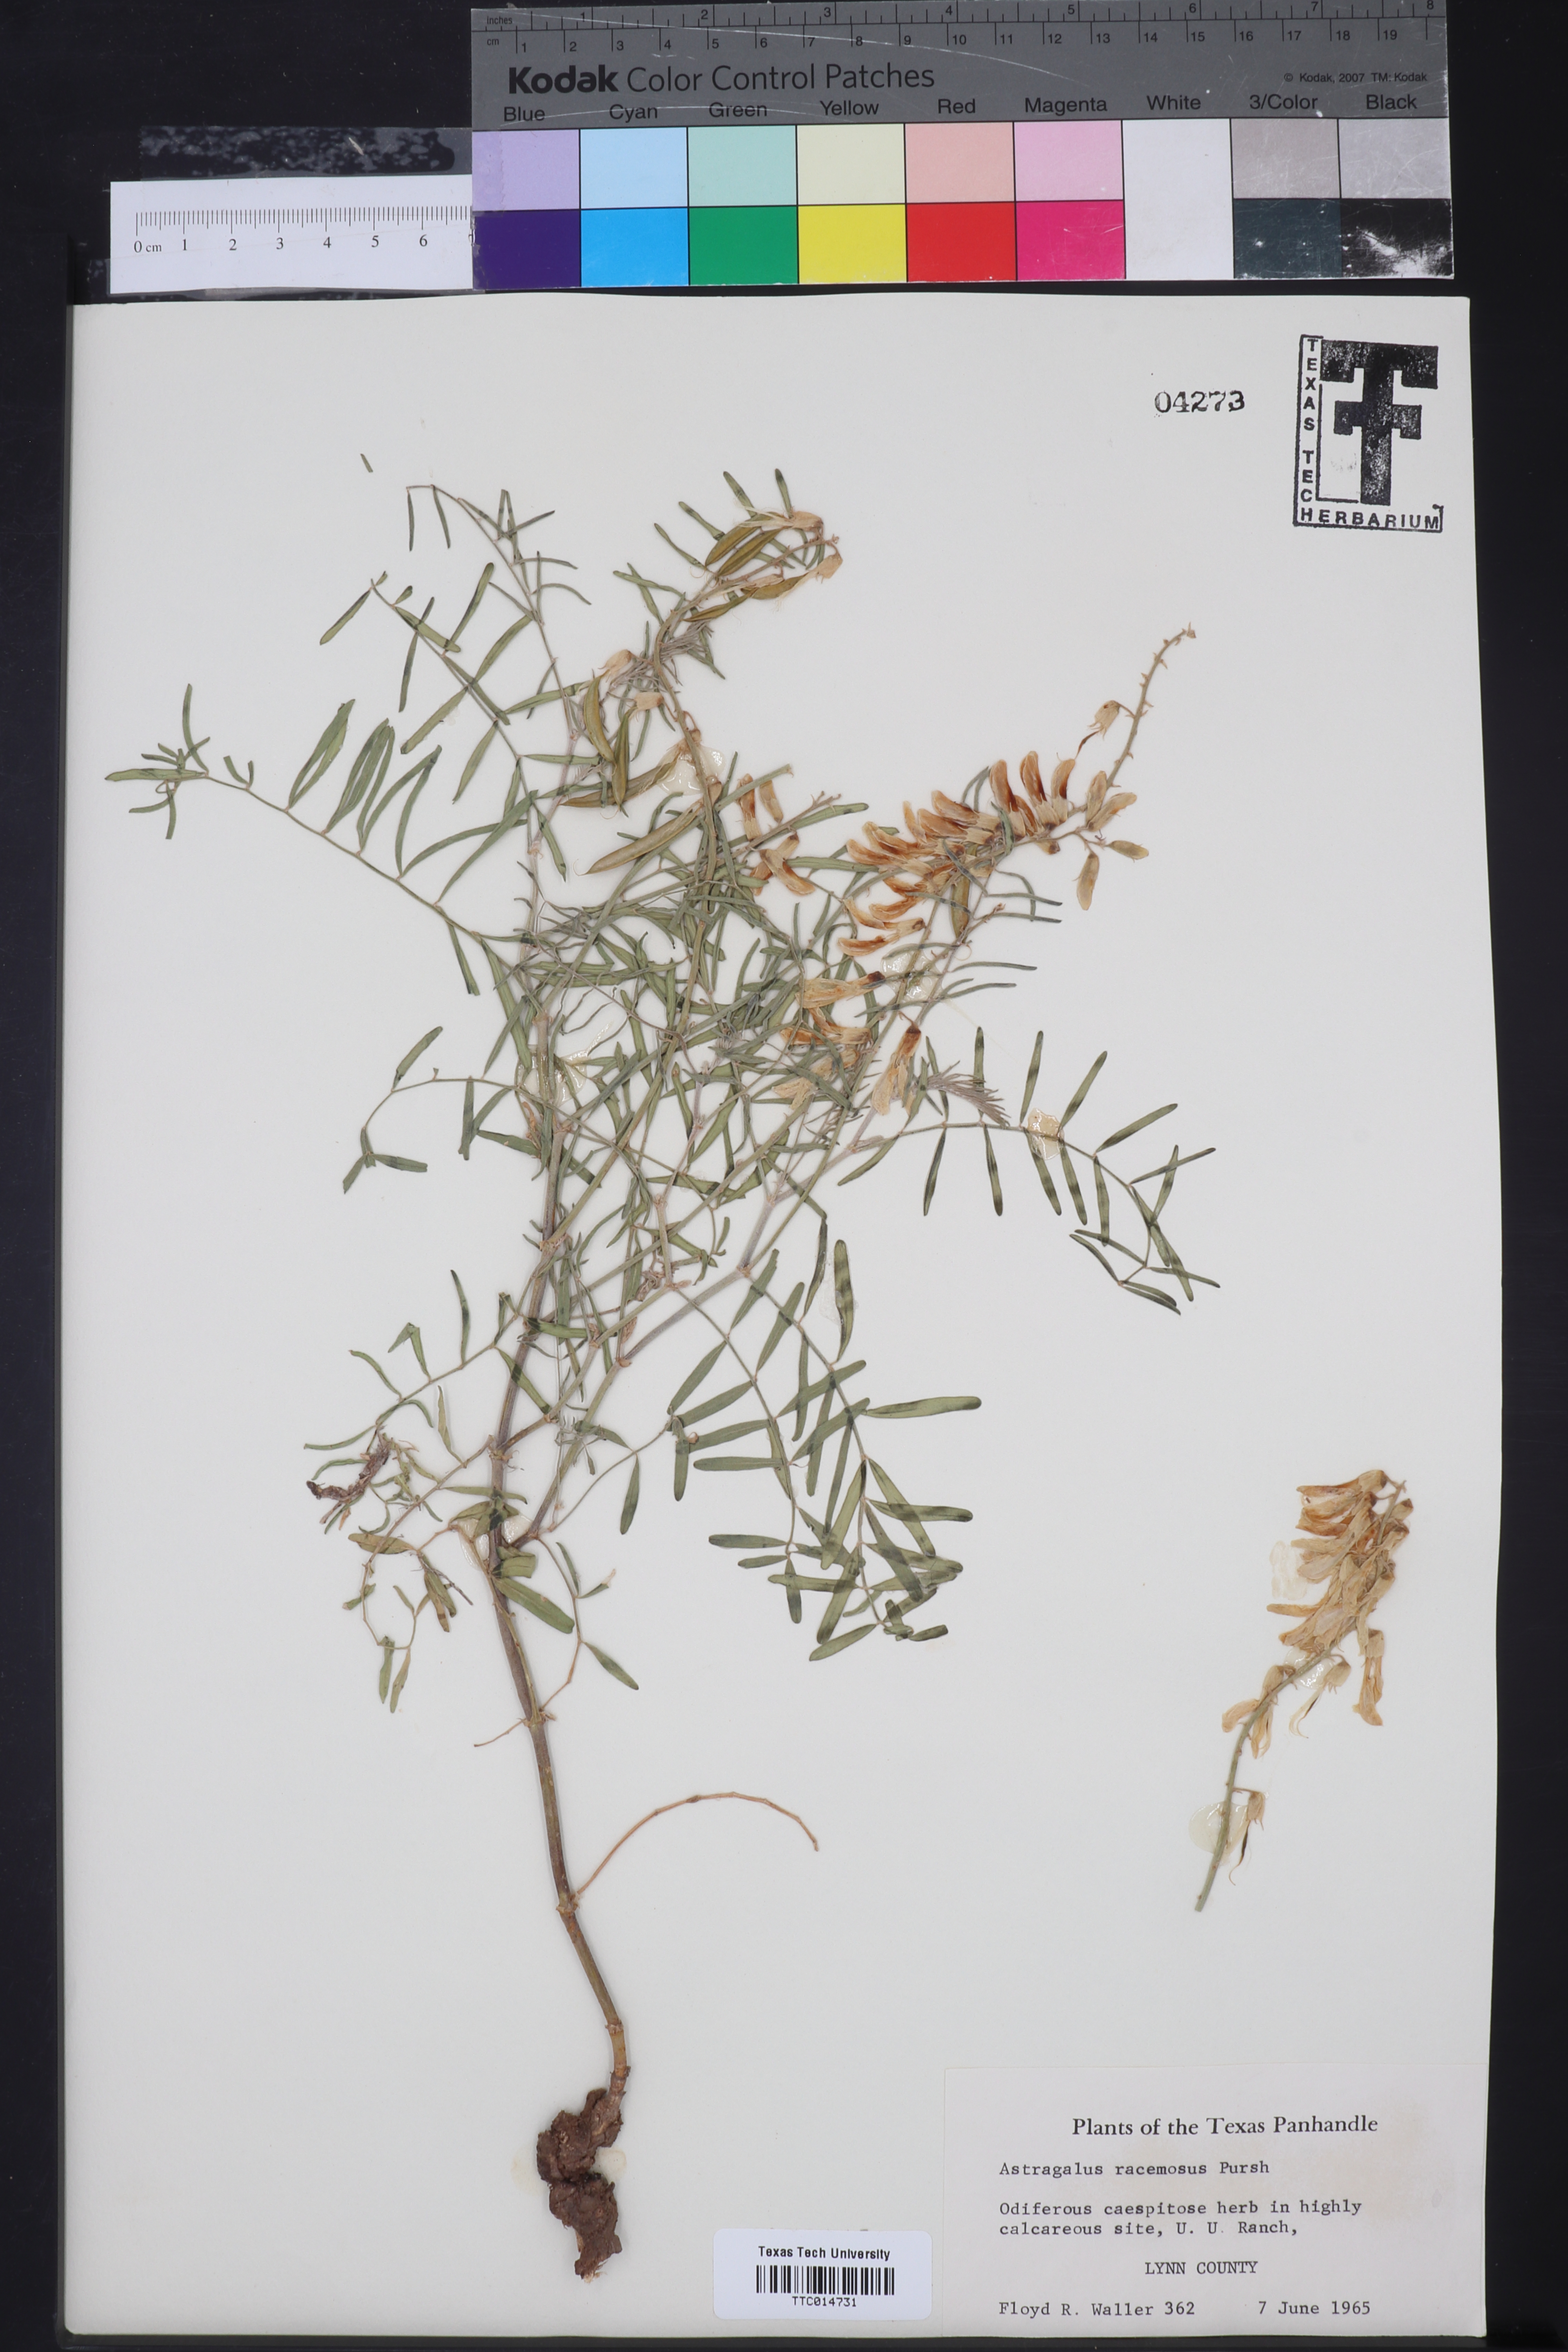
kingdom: Plantae
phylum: Tracheophyta
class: Magnoliopsida
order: Fabales
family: Fabaceae
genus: Astragalus
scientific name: Astragalus racemosus
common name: Alkali milk-vetch
